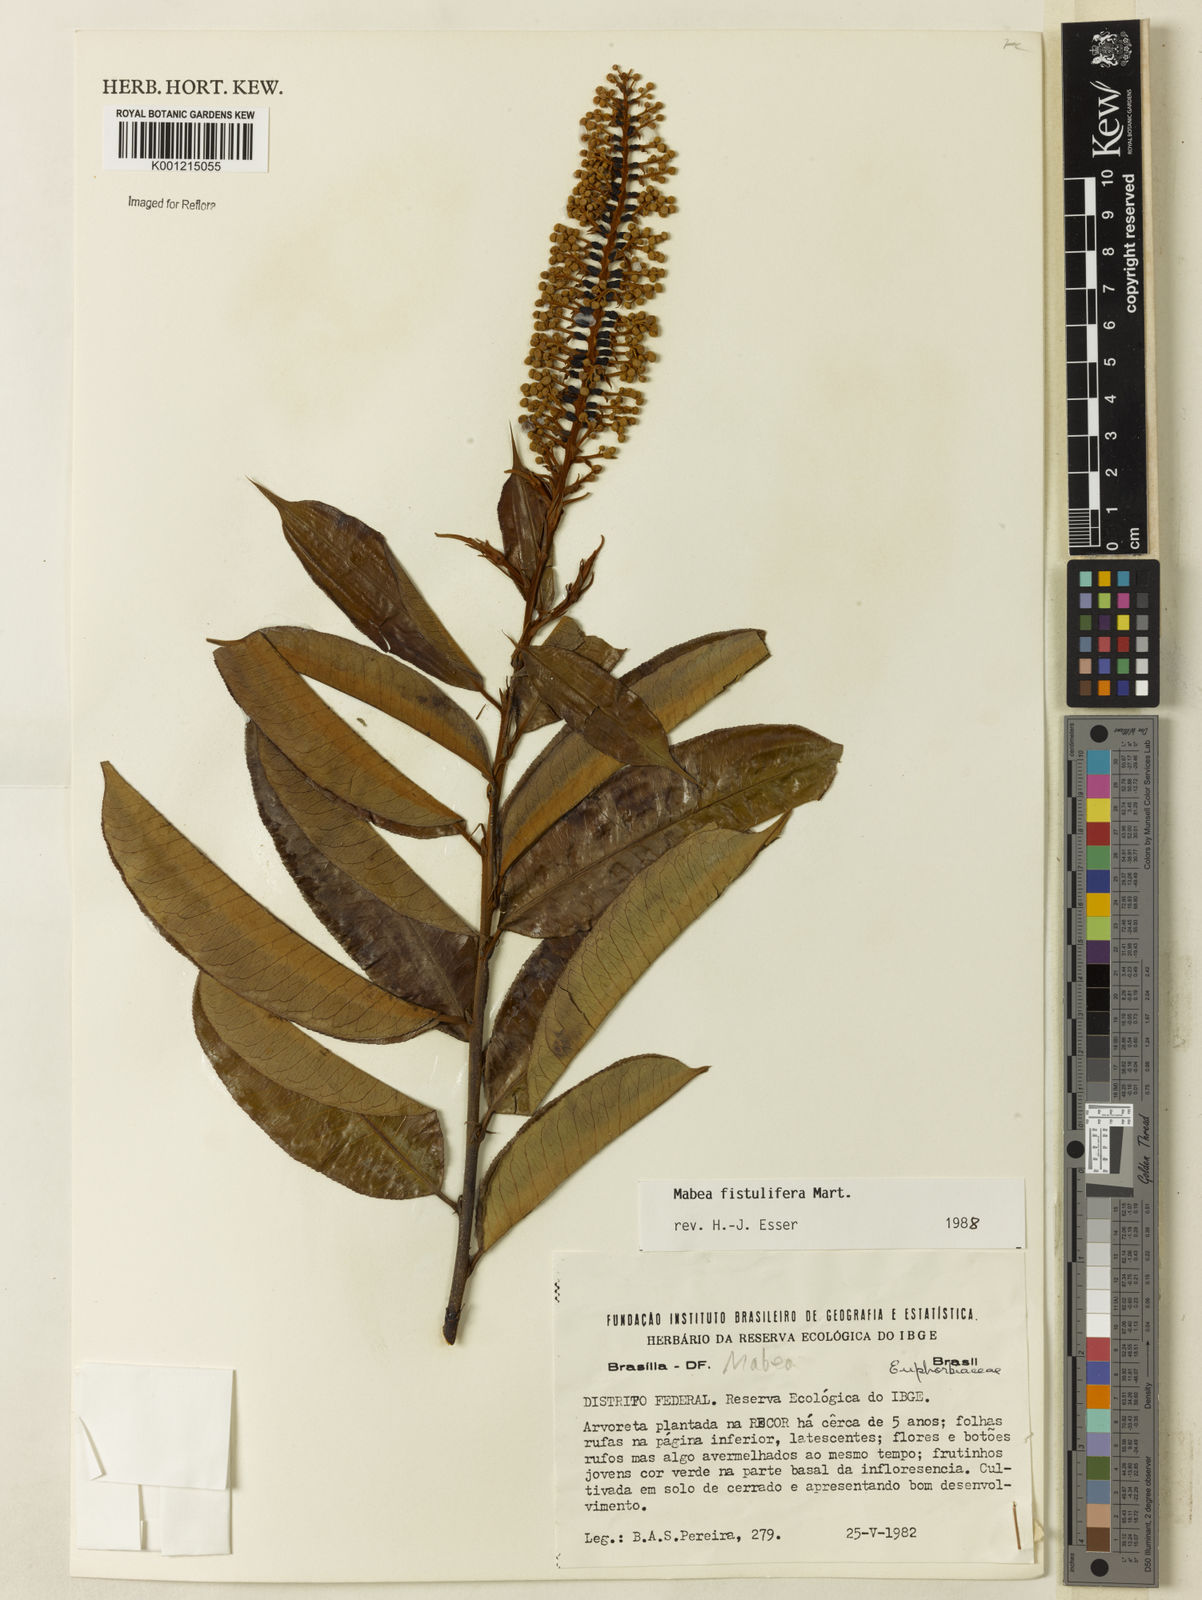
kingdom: Plantae
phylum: Tracheophyta
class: Magnoliopsida
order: Malpighiales
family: Euphorbiaceae
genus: Mabea
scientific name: Mabea fistulifera
